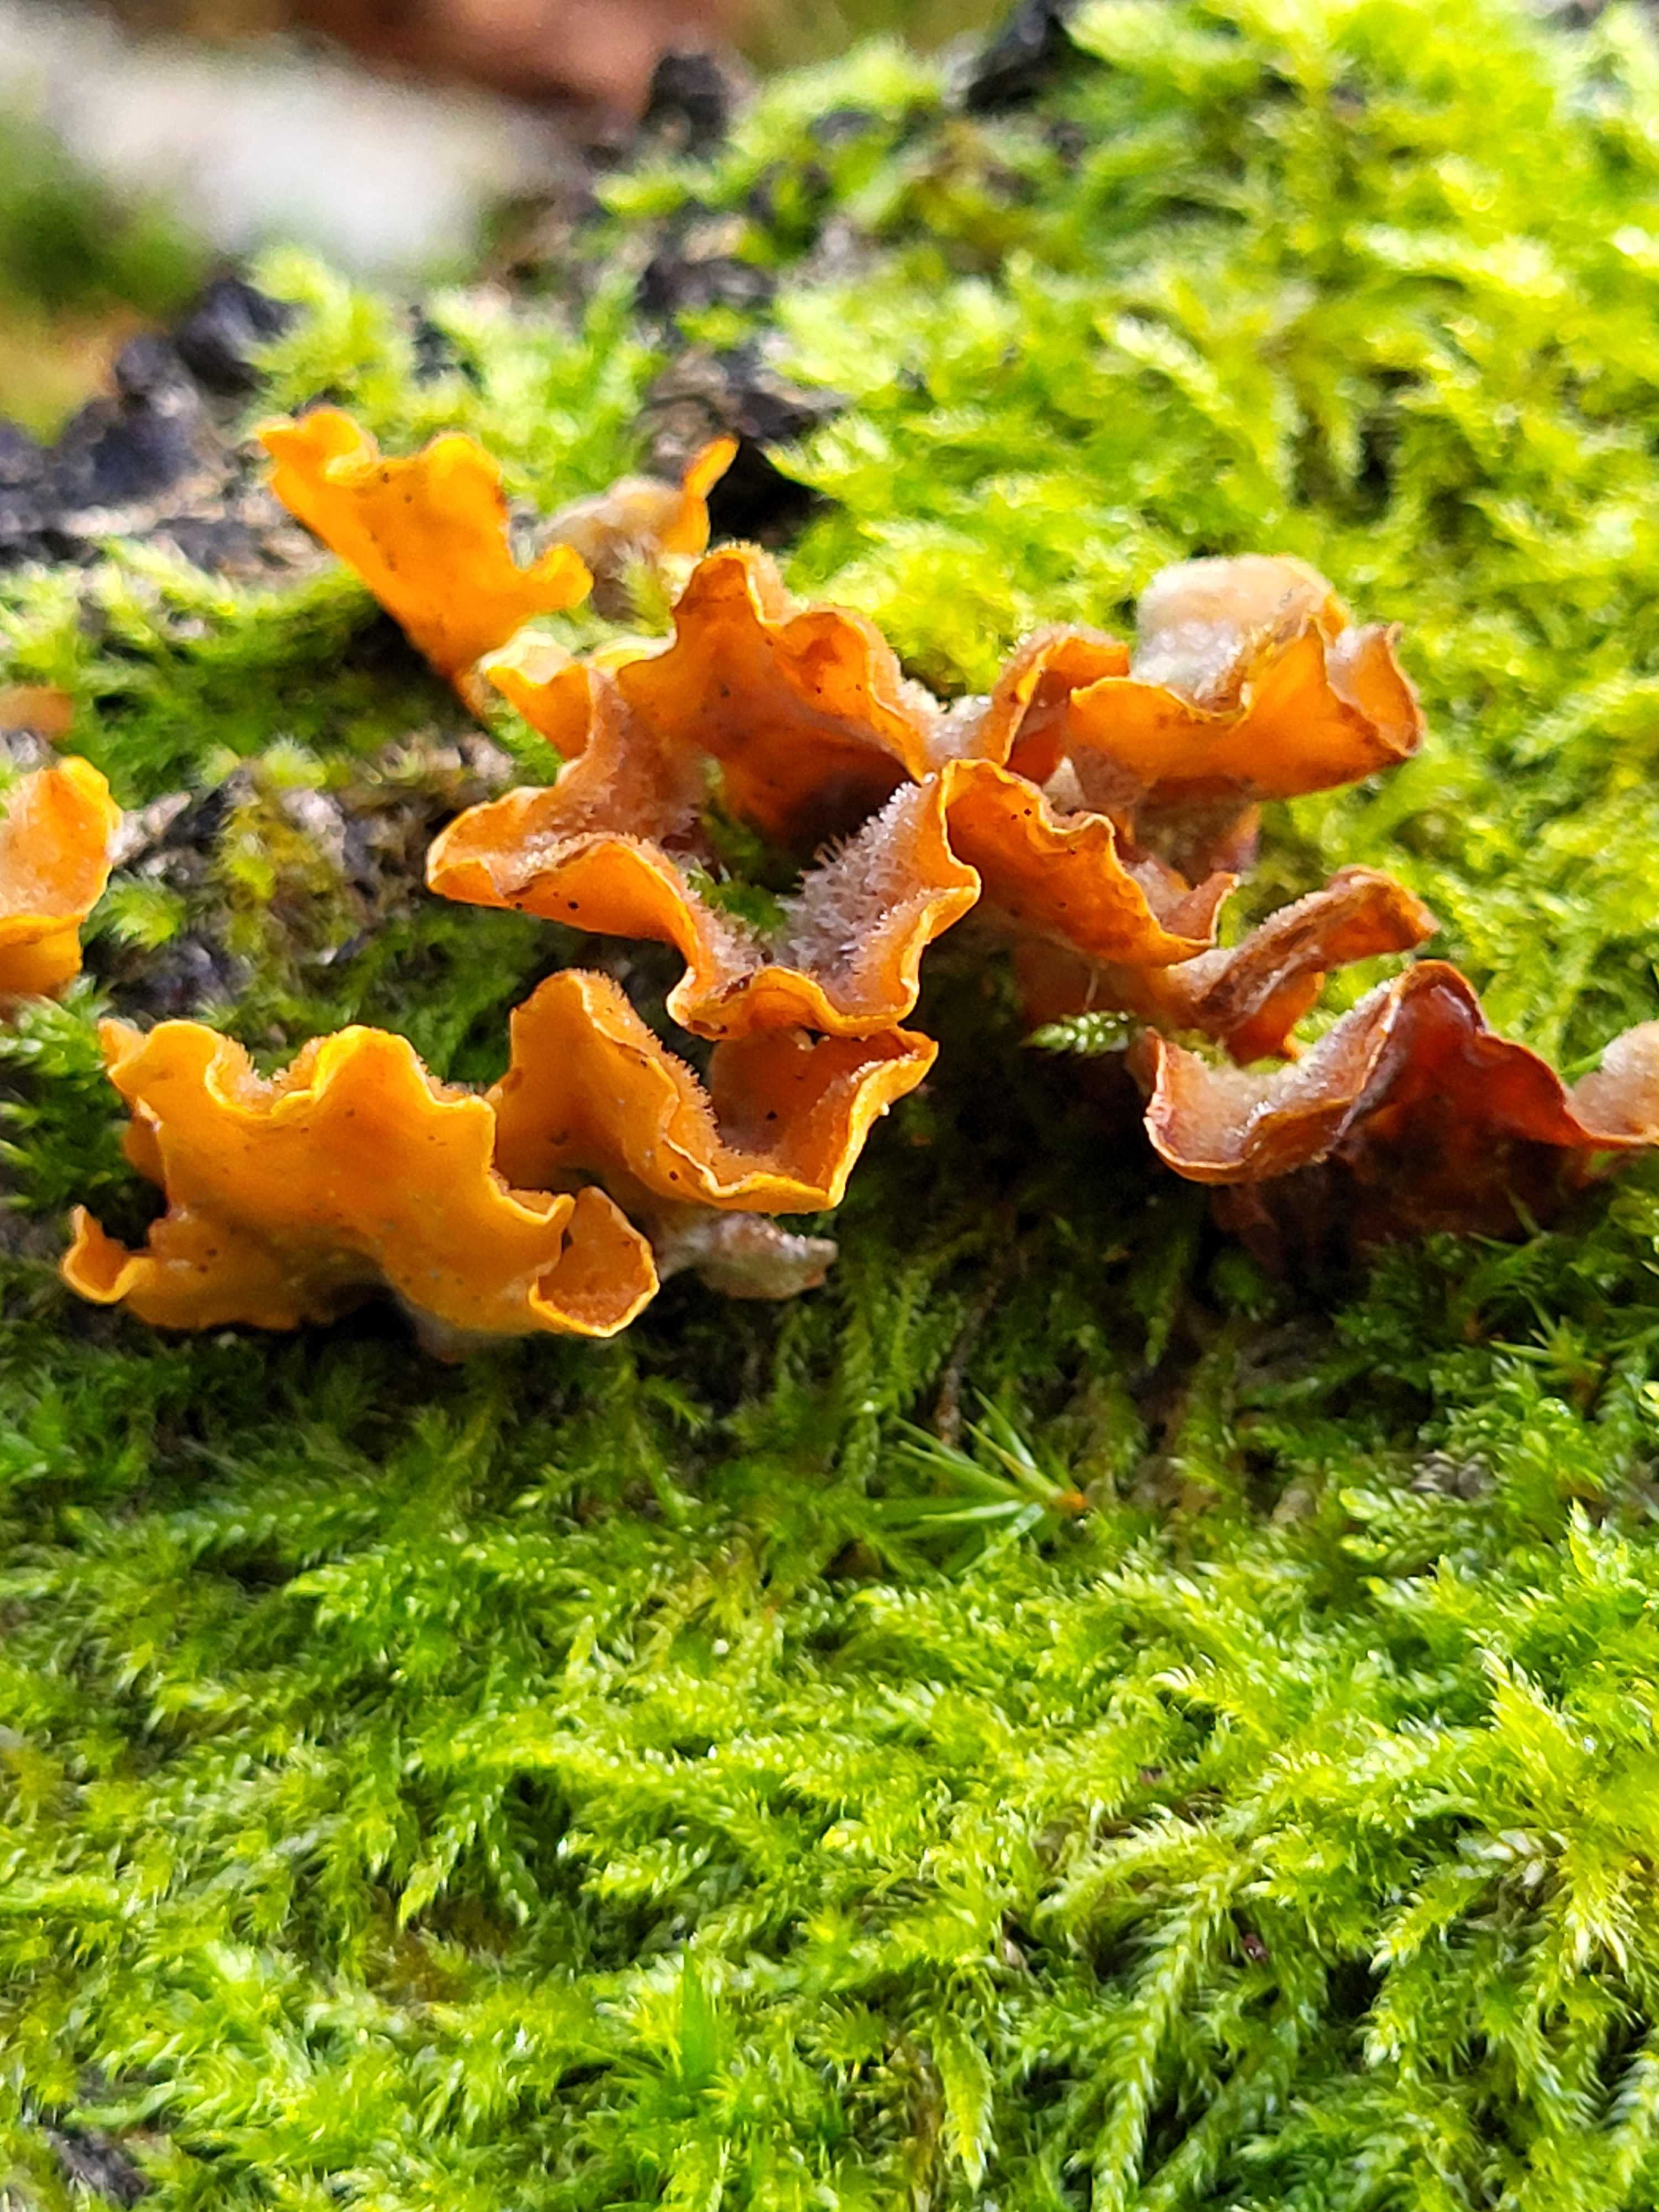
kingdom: Fungi
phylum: Basidiomycota
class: Agaricomycetes
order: Russulales
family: Stereaceae
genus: Stereum
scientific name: Stereum hirsutum
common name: håret lædersvamp
